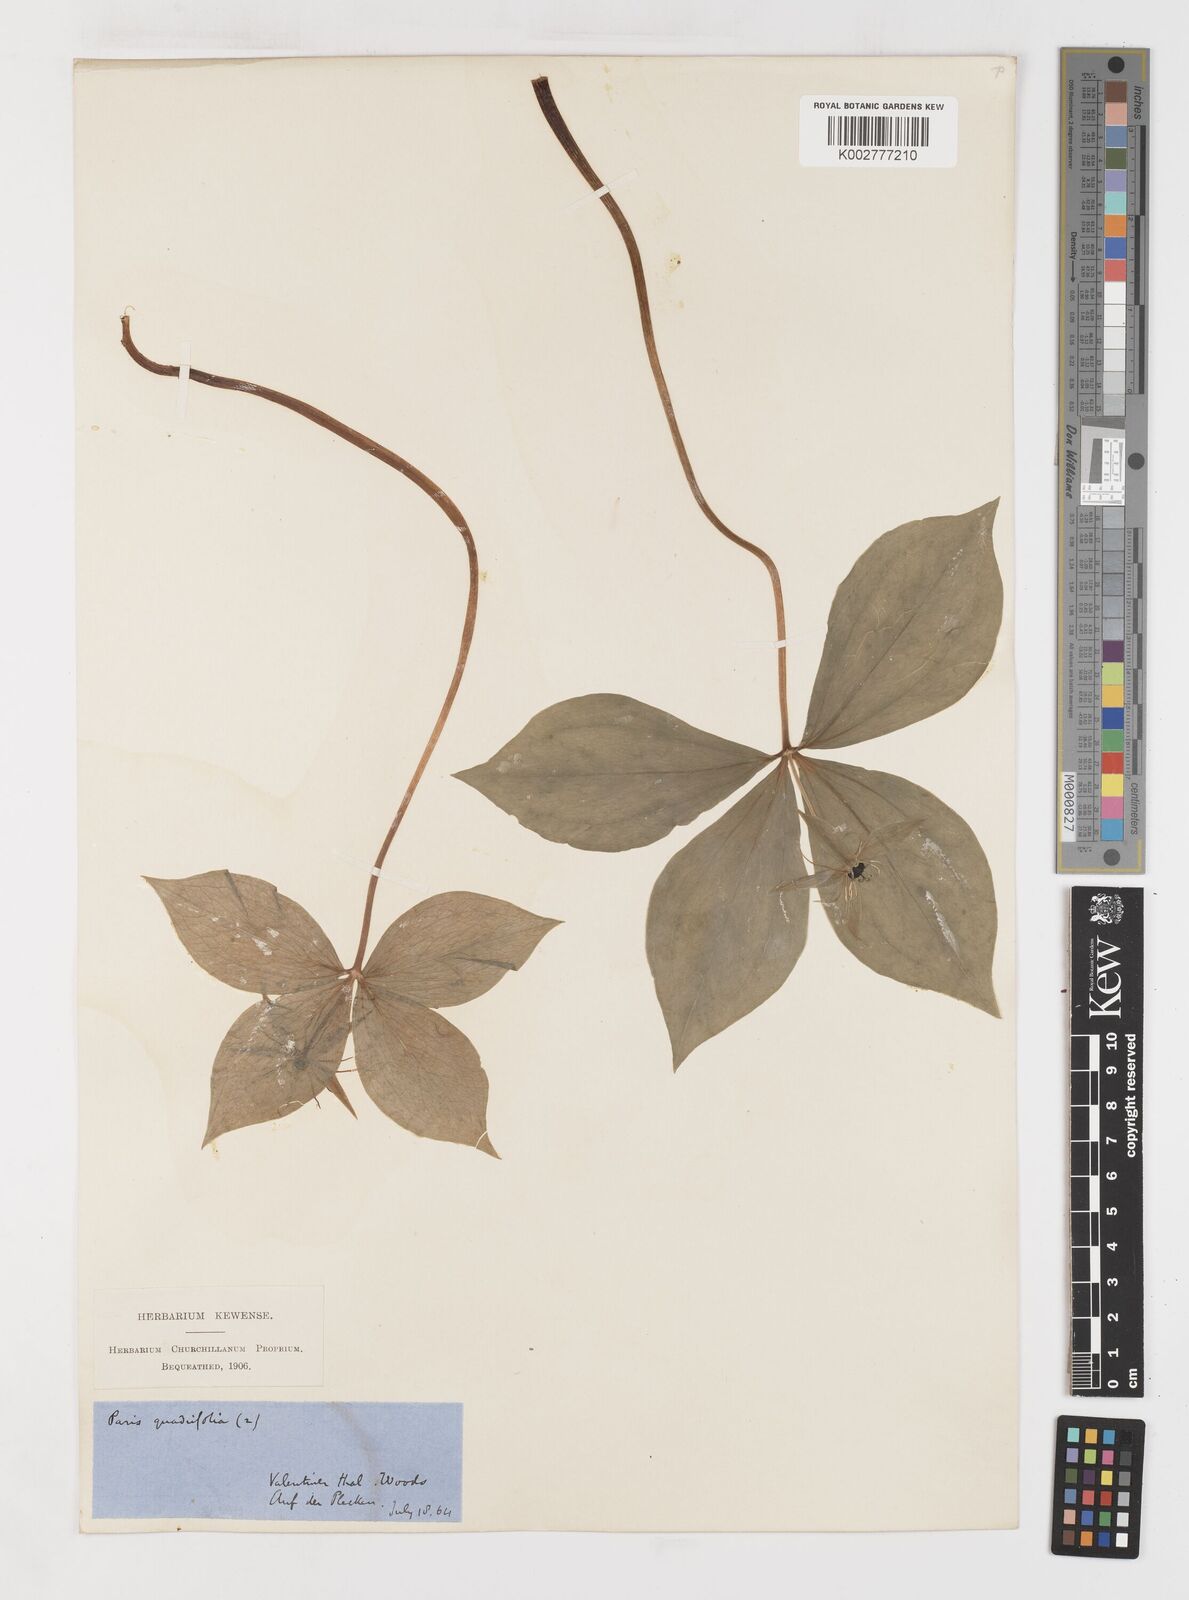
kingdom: Plantae
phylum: Tracheophyta
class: Liliopsida
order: Liliales
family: Melanthiaceae
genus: Paris
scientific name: Paris quadrifolia
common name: Herb-paris
